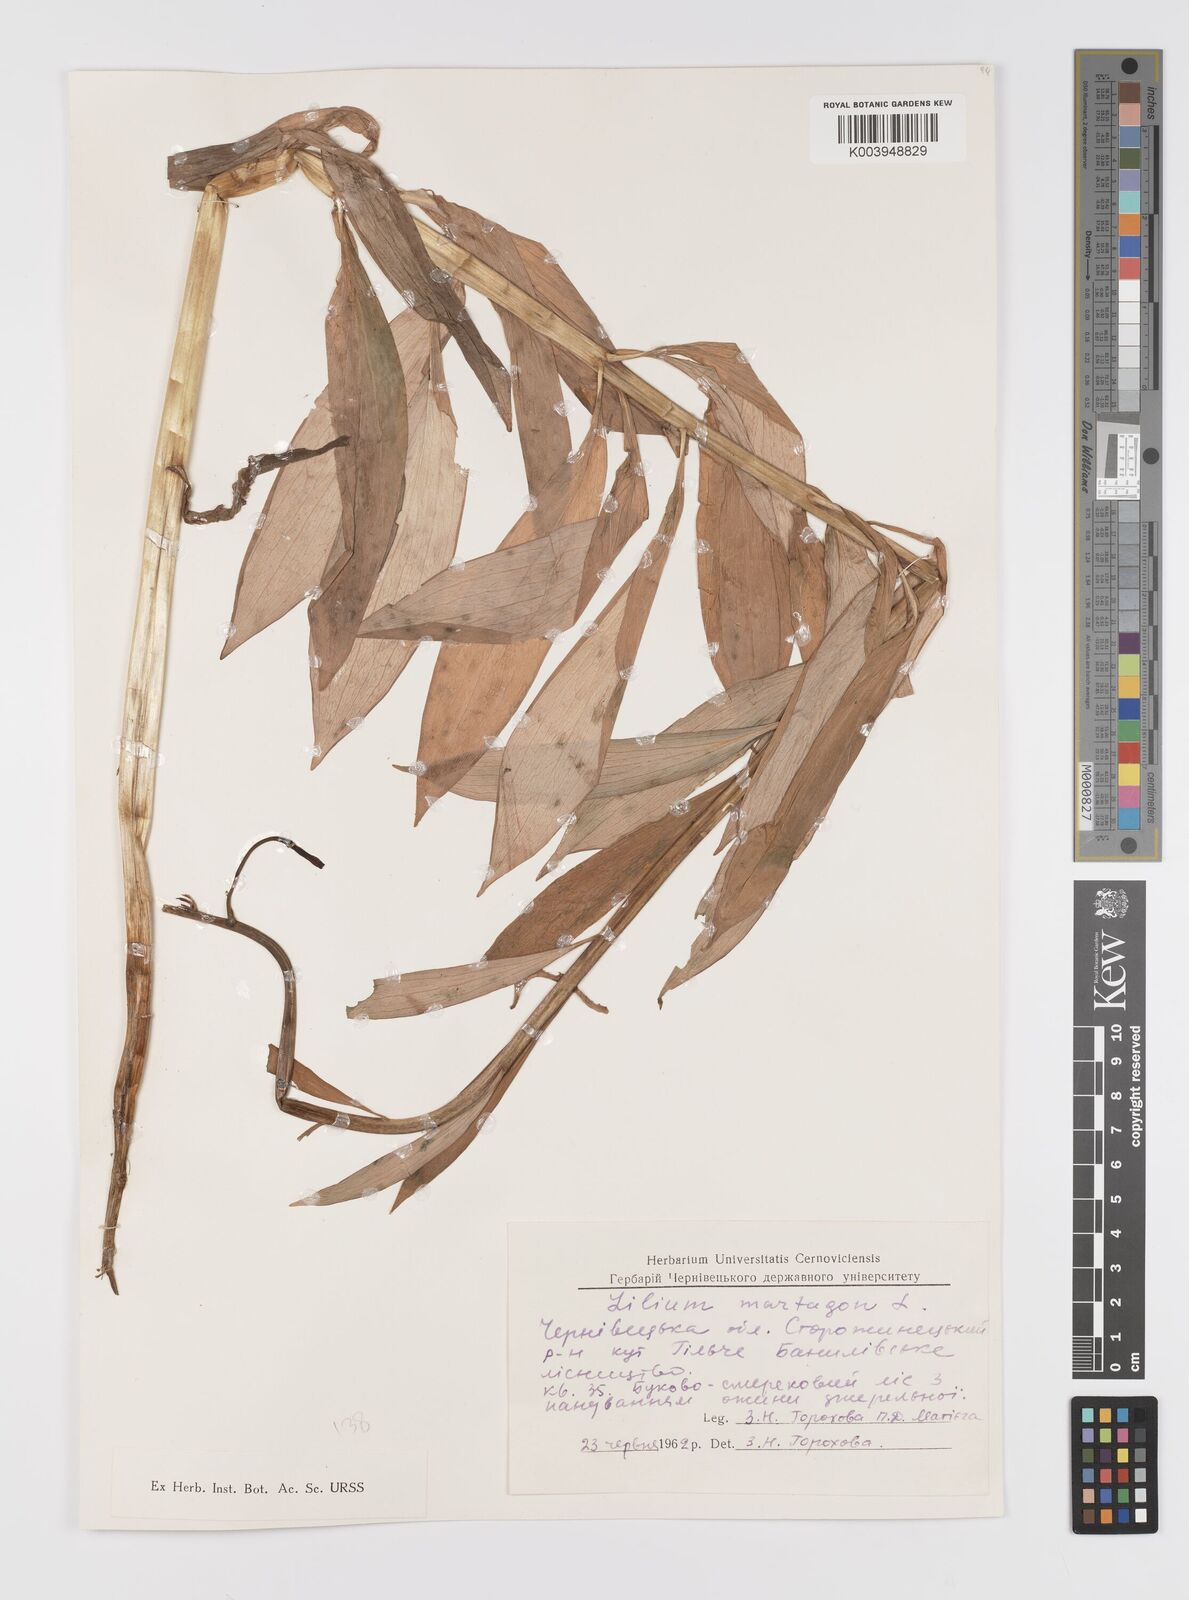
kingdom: Plantae
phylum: Tracheophyta
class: Liliopsida
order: Liliales
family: Liliaceae
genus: Lilium
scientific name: Lilium martagon
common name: Martagon lily
